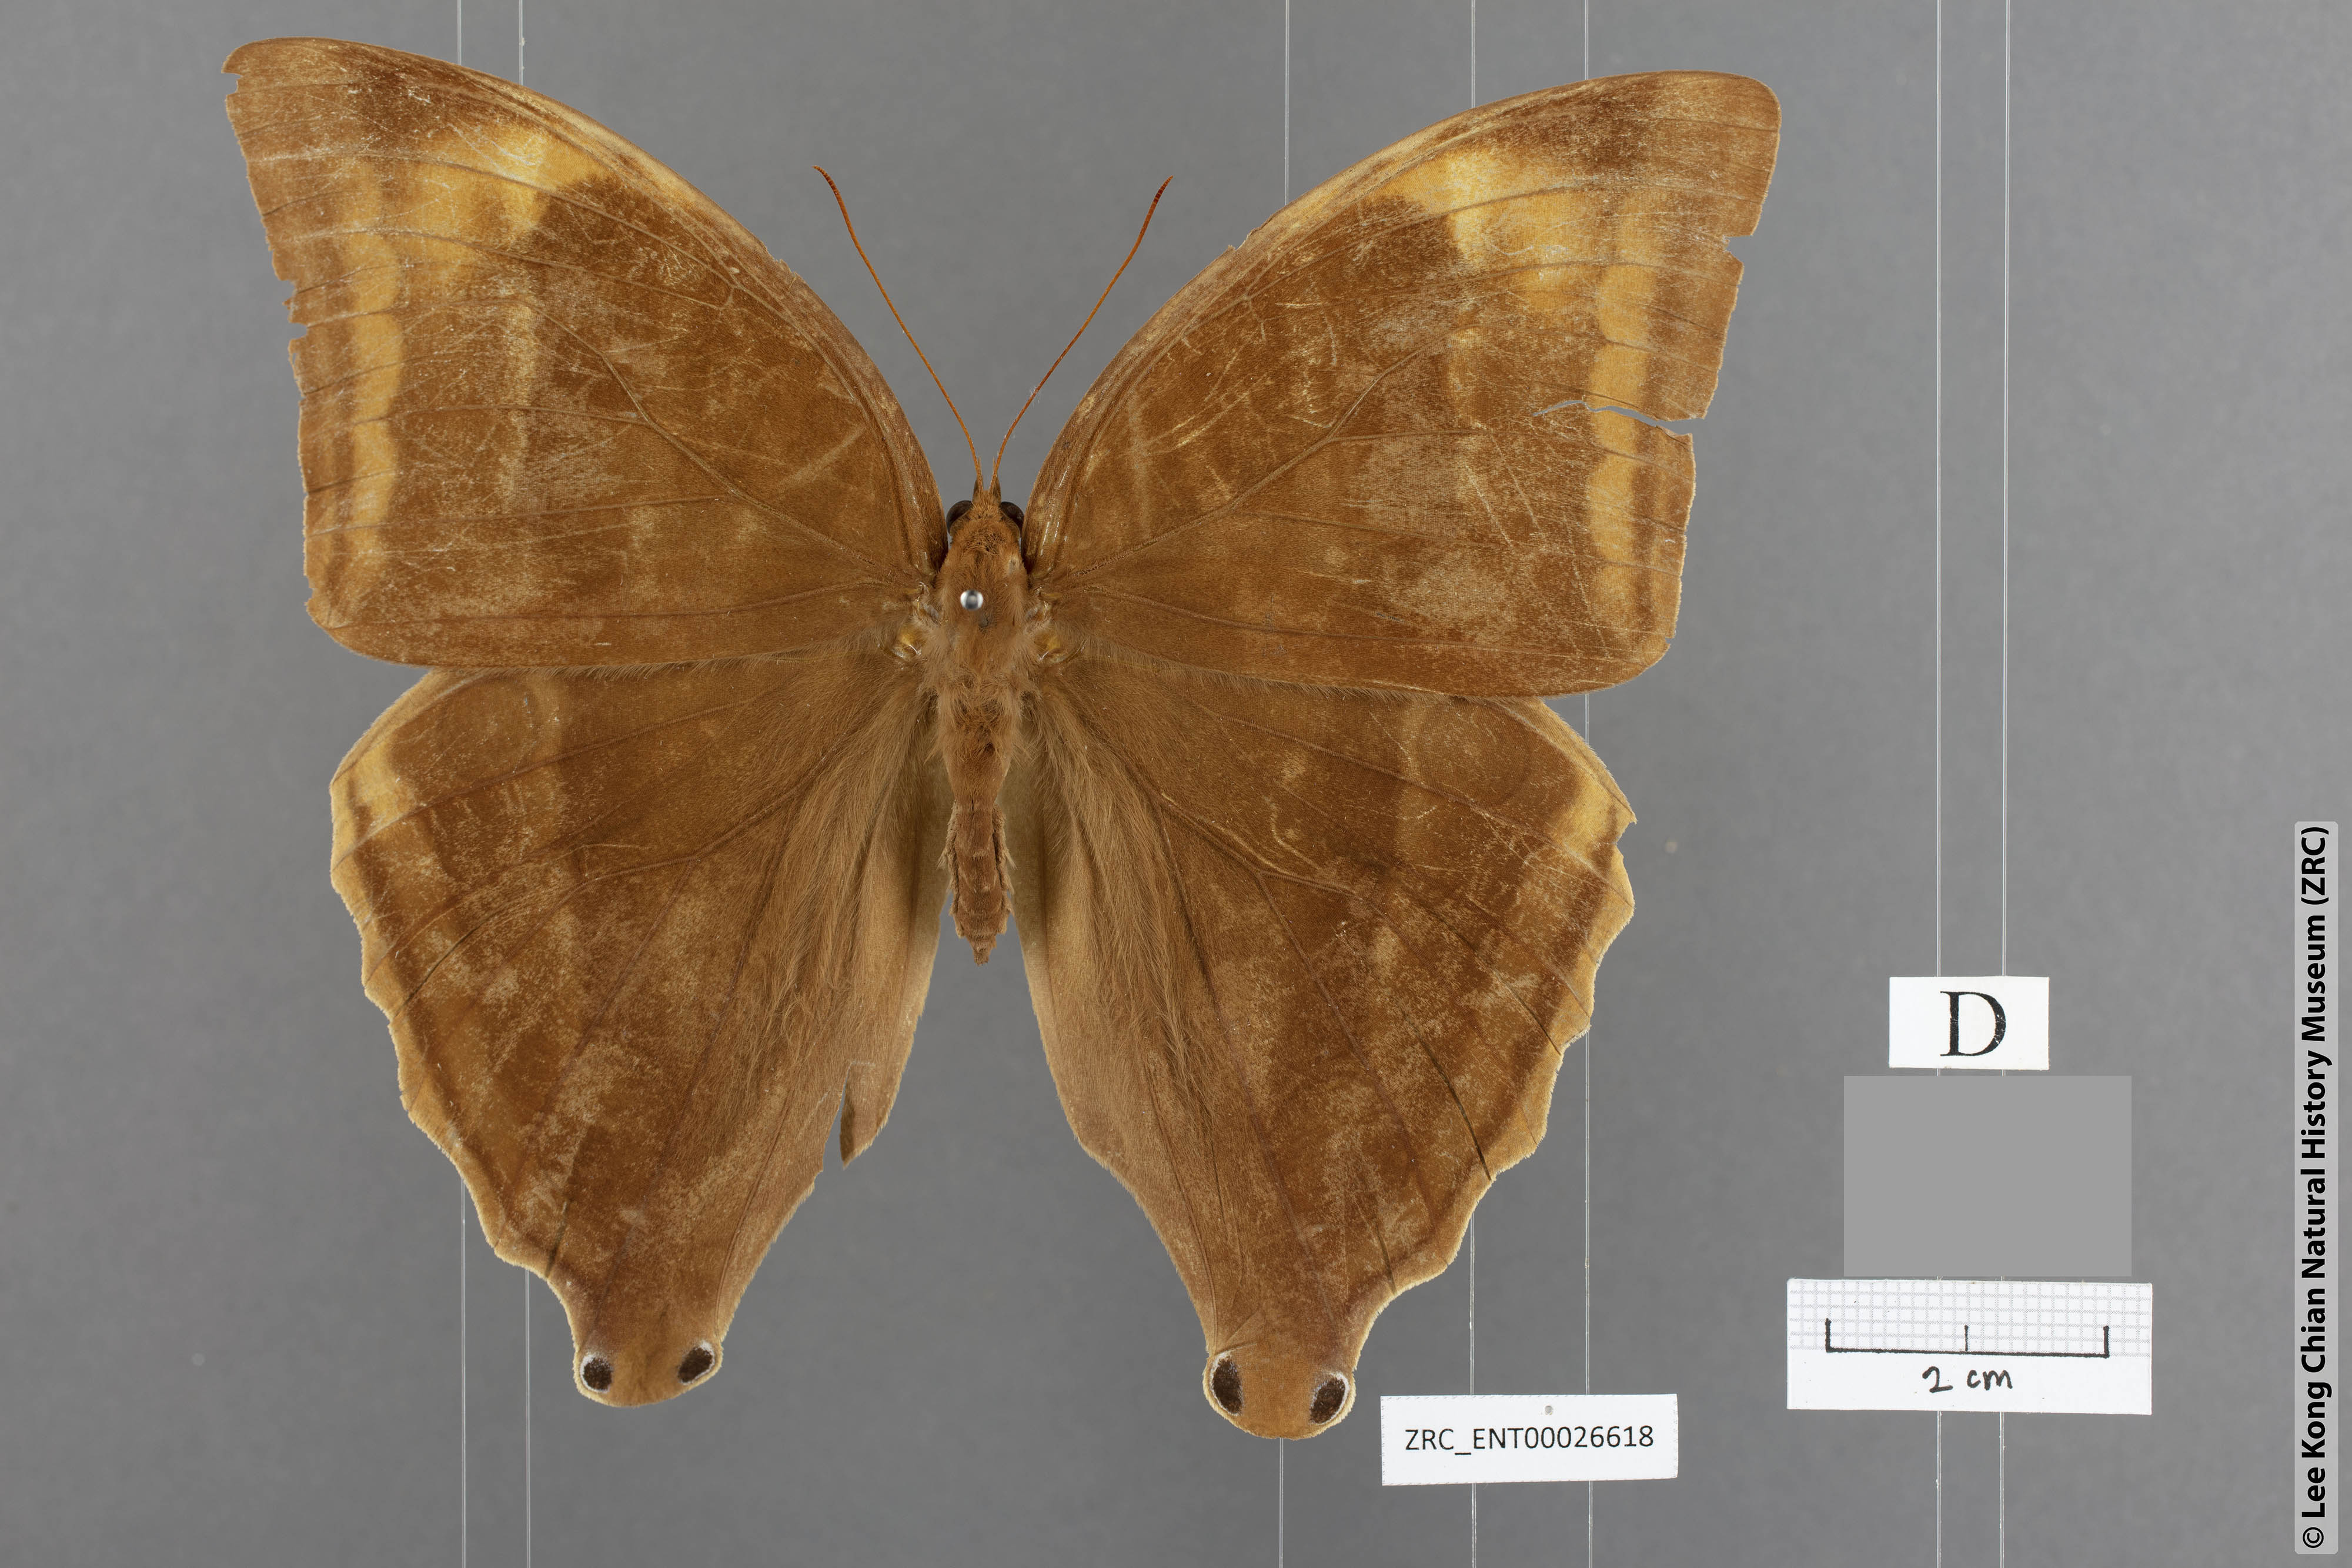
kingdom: Animalia
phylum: Arthropoda
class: Insecta
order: Lepidoptera
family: Nymphalidae
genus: Amathusia
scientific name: Amathusia perakana
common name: Perak palm king
